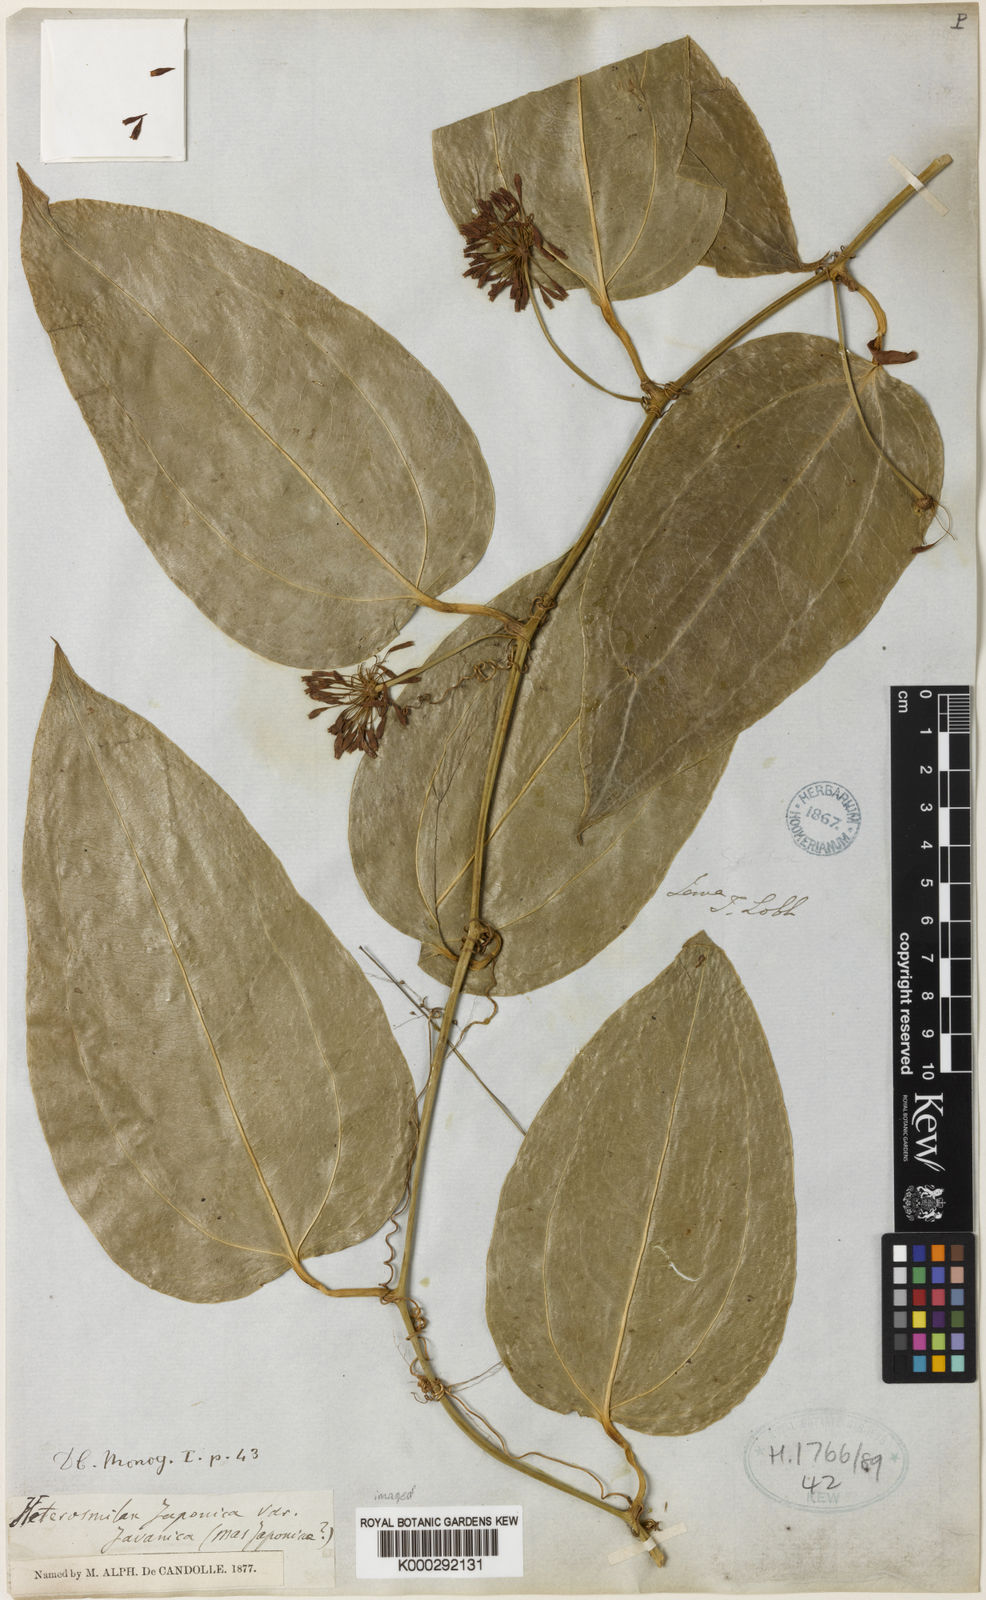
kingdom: Plantae
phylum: Tracheophyta
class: Liliopsida
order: Liliales
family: Smilacaceae
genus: Smilax
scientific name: Smilax bockii
